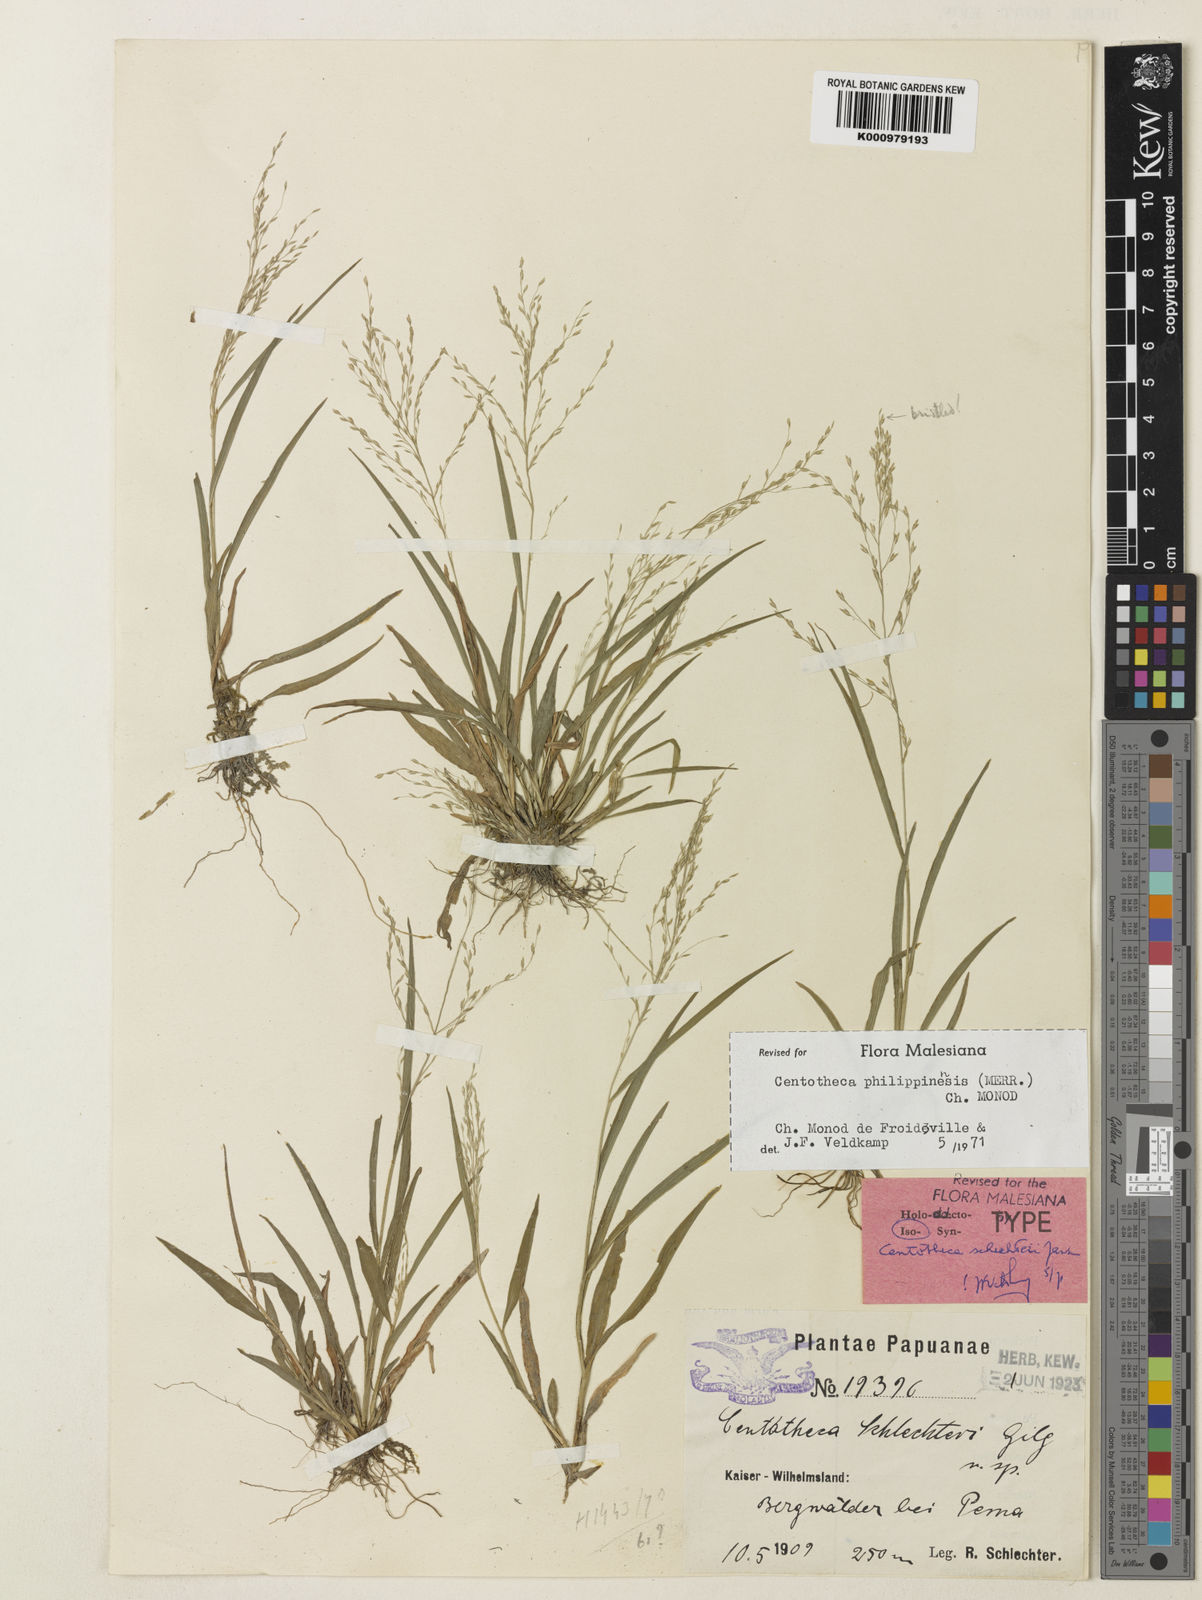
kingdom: Plantae
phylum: Tracheophyta
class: Liliopsida
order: Poales
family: Poaceae
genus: Centotheca
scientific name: Centotheca philippinensis
